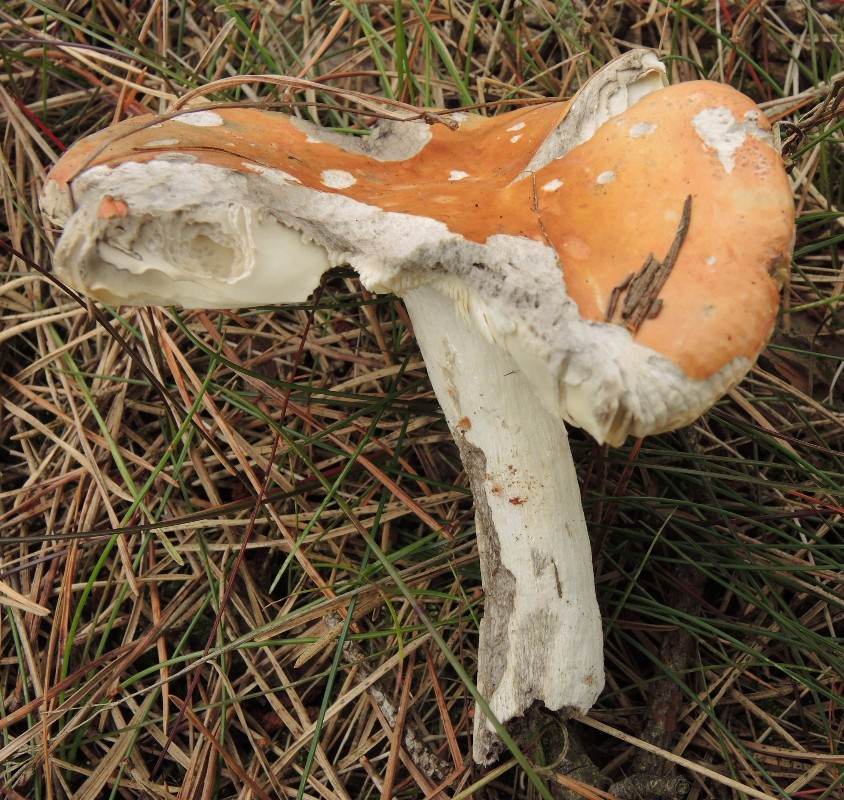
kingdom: Fungi
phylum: Basidiomycota
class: Agaricomycetes
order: Russulales
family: Russulaceae
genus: Russula
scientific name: Russula decolorans
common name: afblegende skørhat
